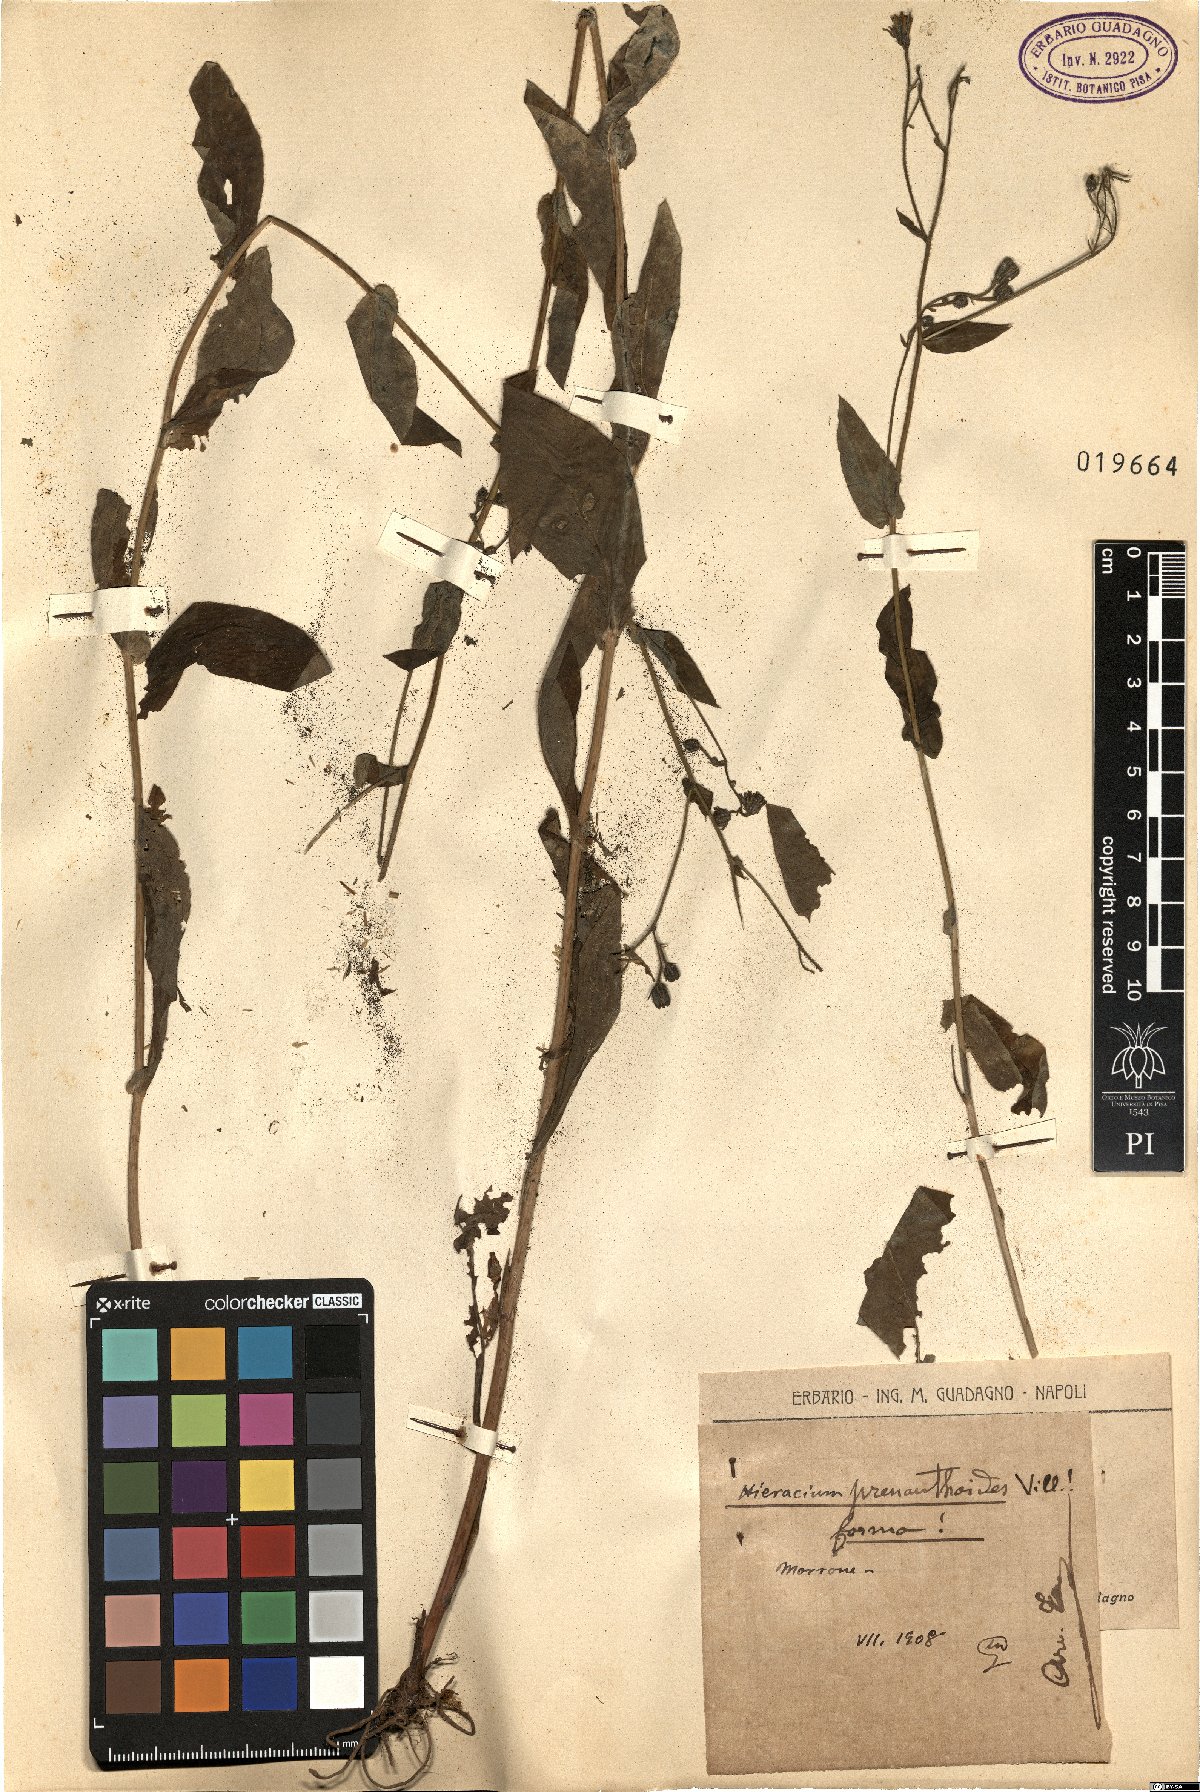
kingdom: Plantae
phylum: Tracheophyta
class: Magnoliopsida
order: Asterales
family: Asteraceae
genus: Hieracium
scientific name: Hieracium prenanthoides
